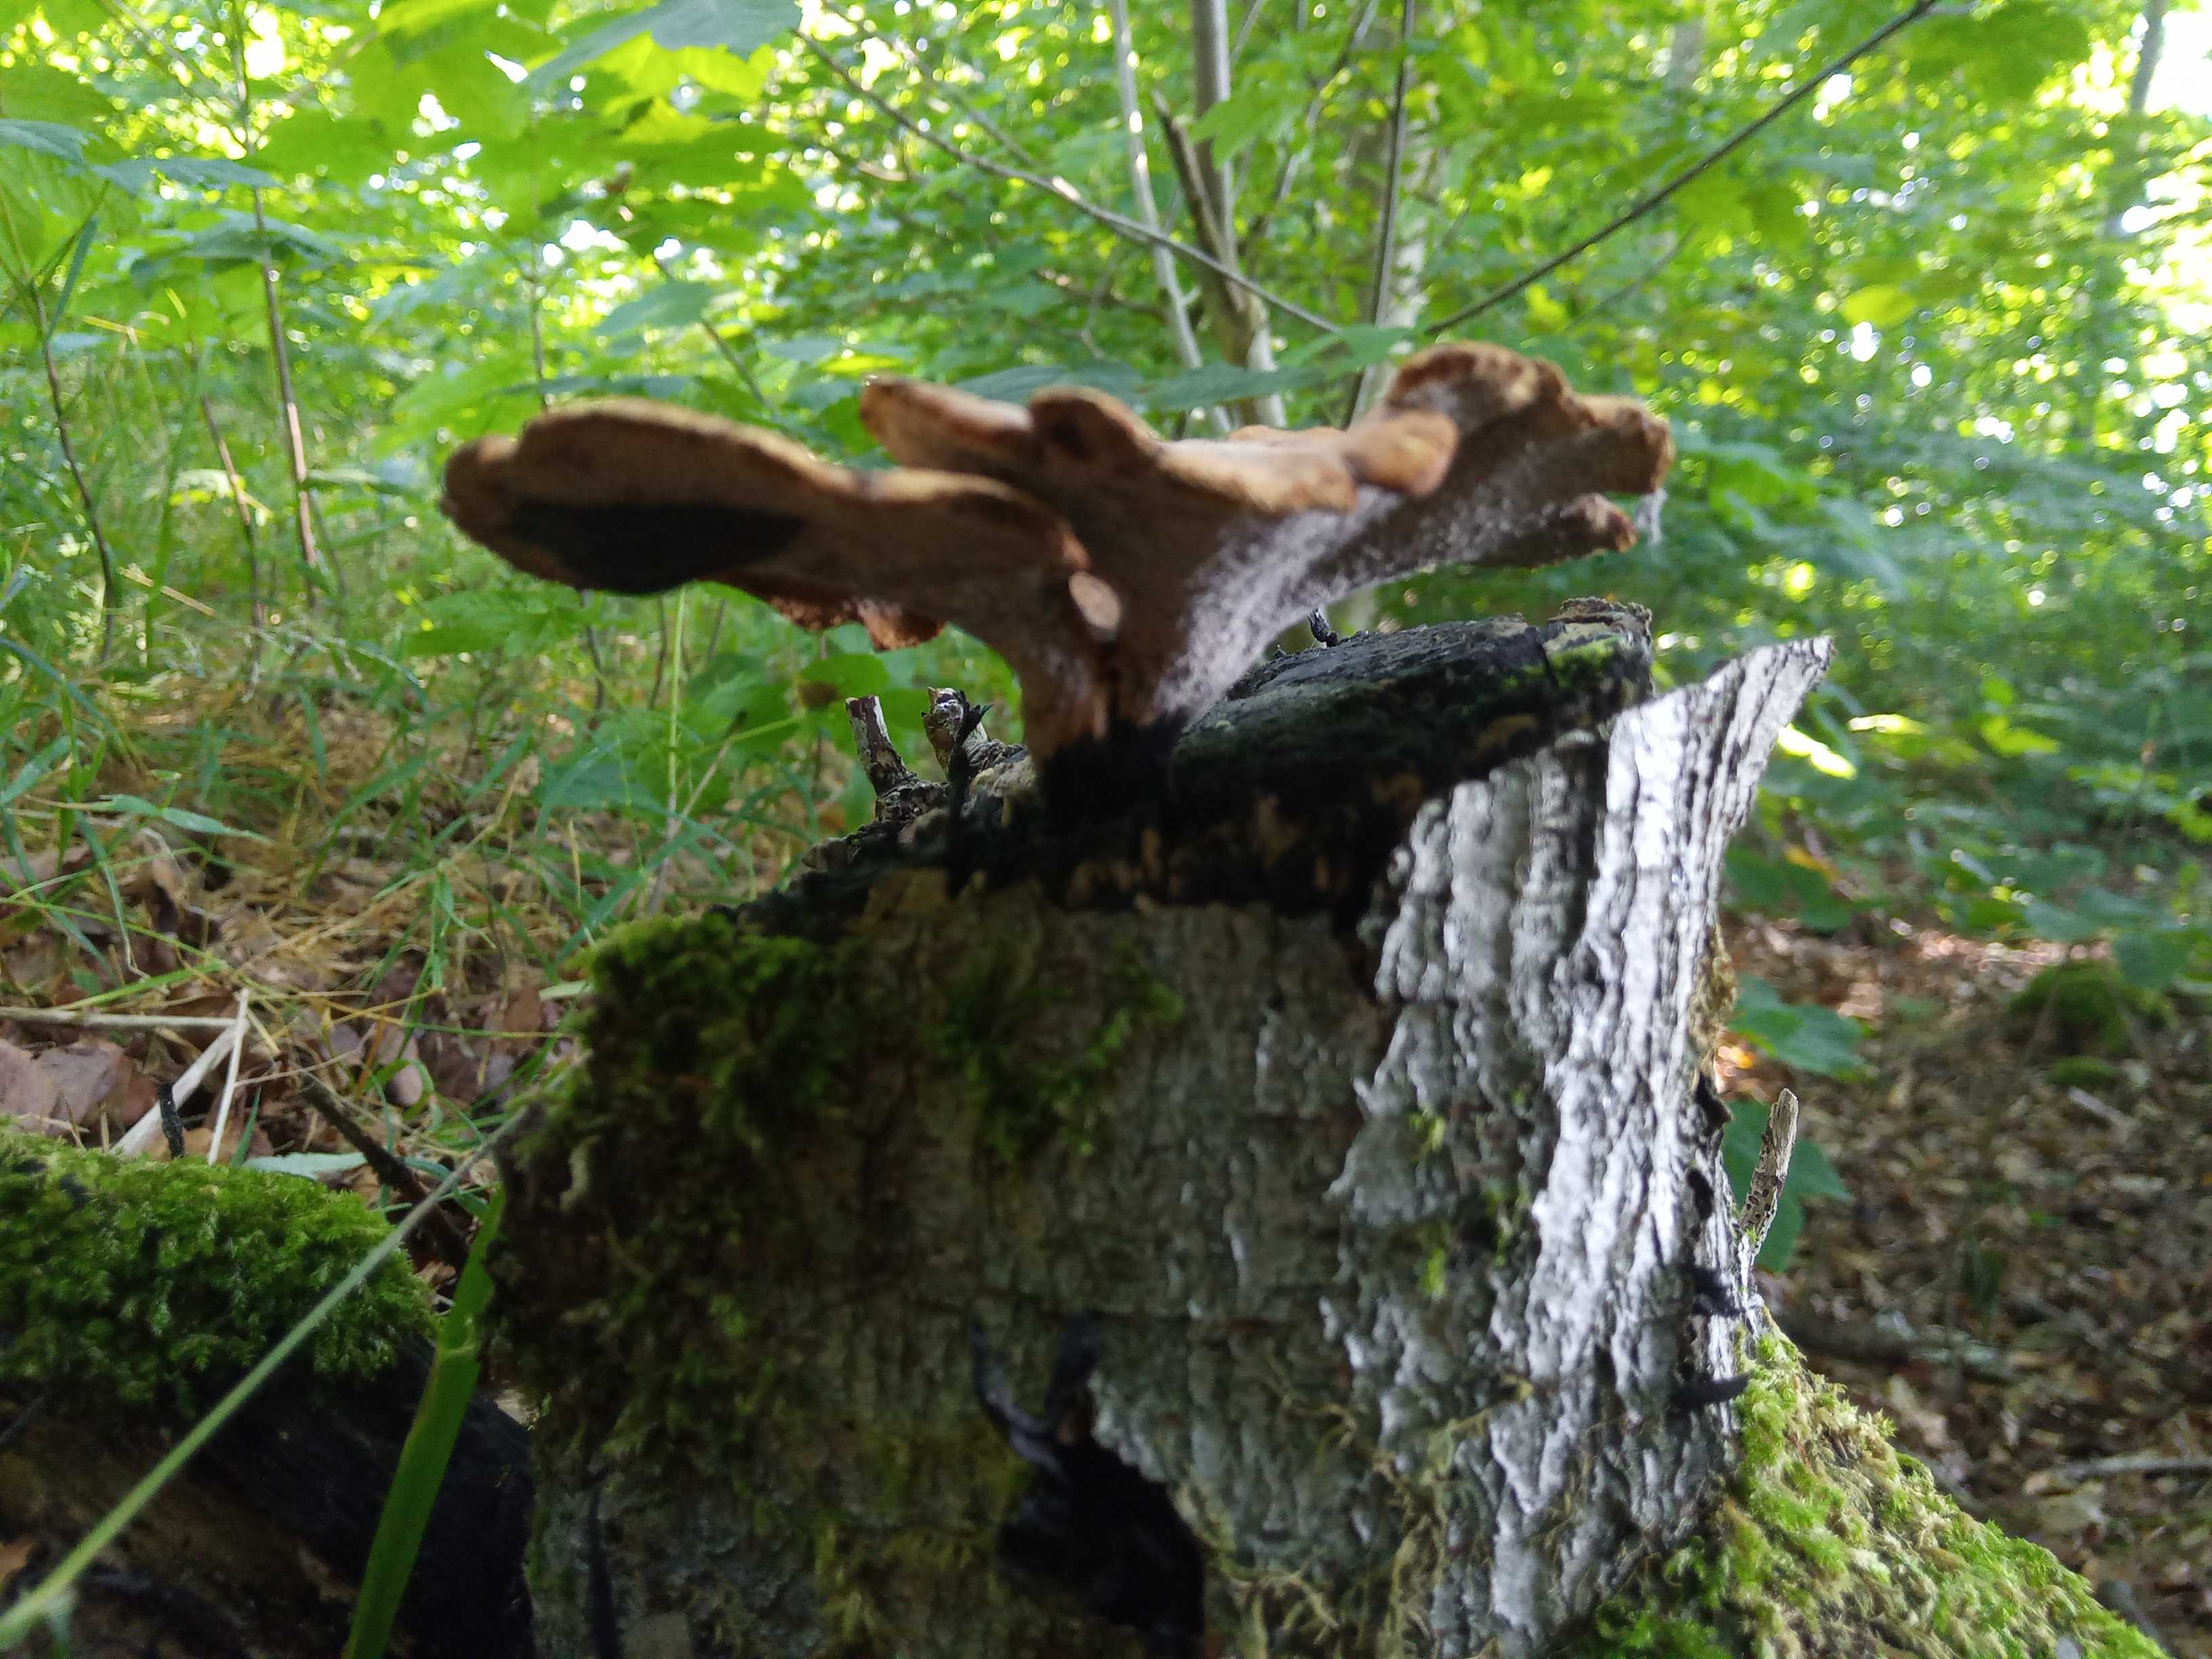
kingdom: Fungi
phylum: Basidiomycota
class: Agaricomycetes
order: Polyporales
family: Polyporaceae
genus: Cerioporus
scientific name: Cerioporus varius
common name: foranderlig stilkporesvamp
